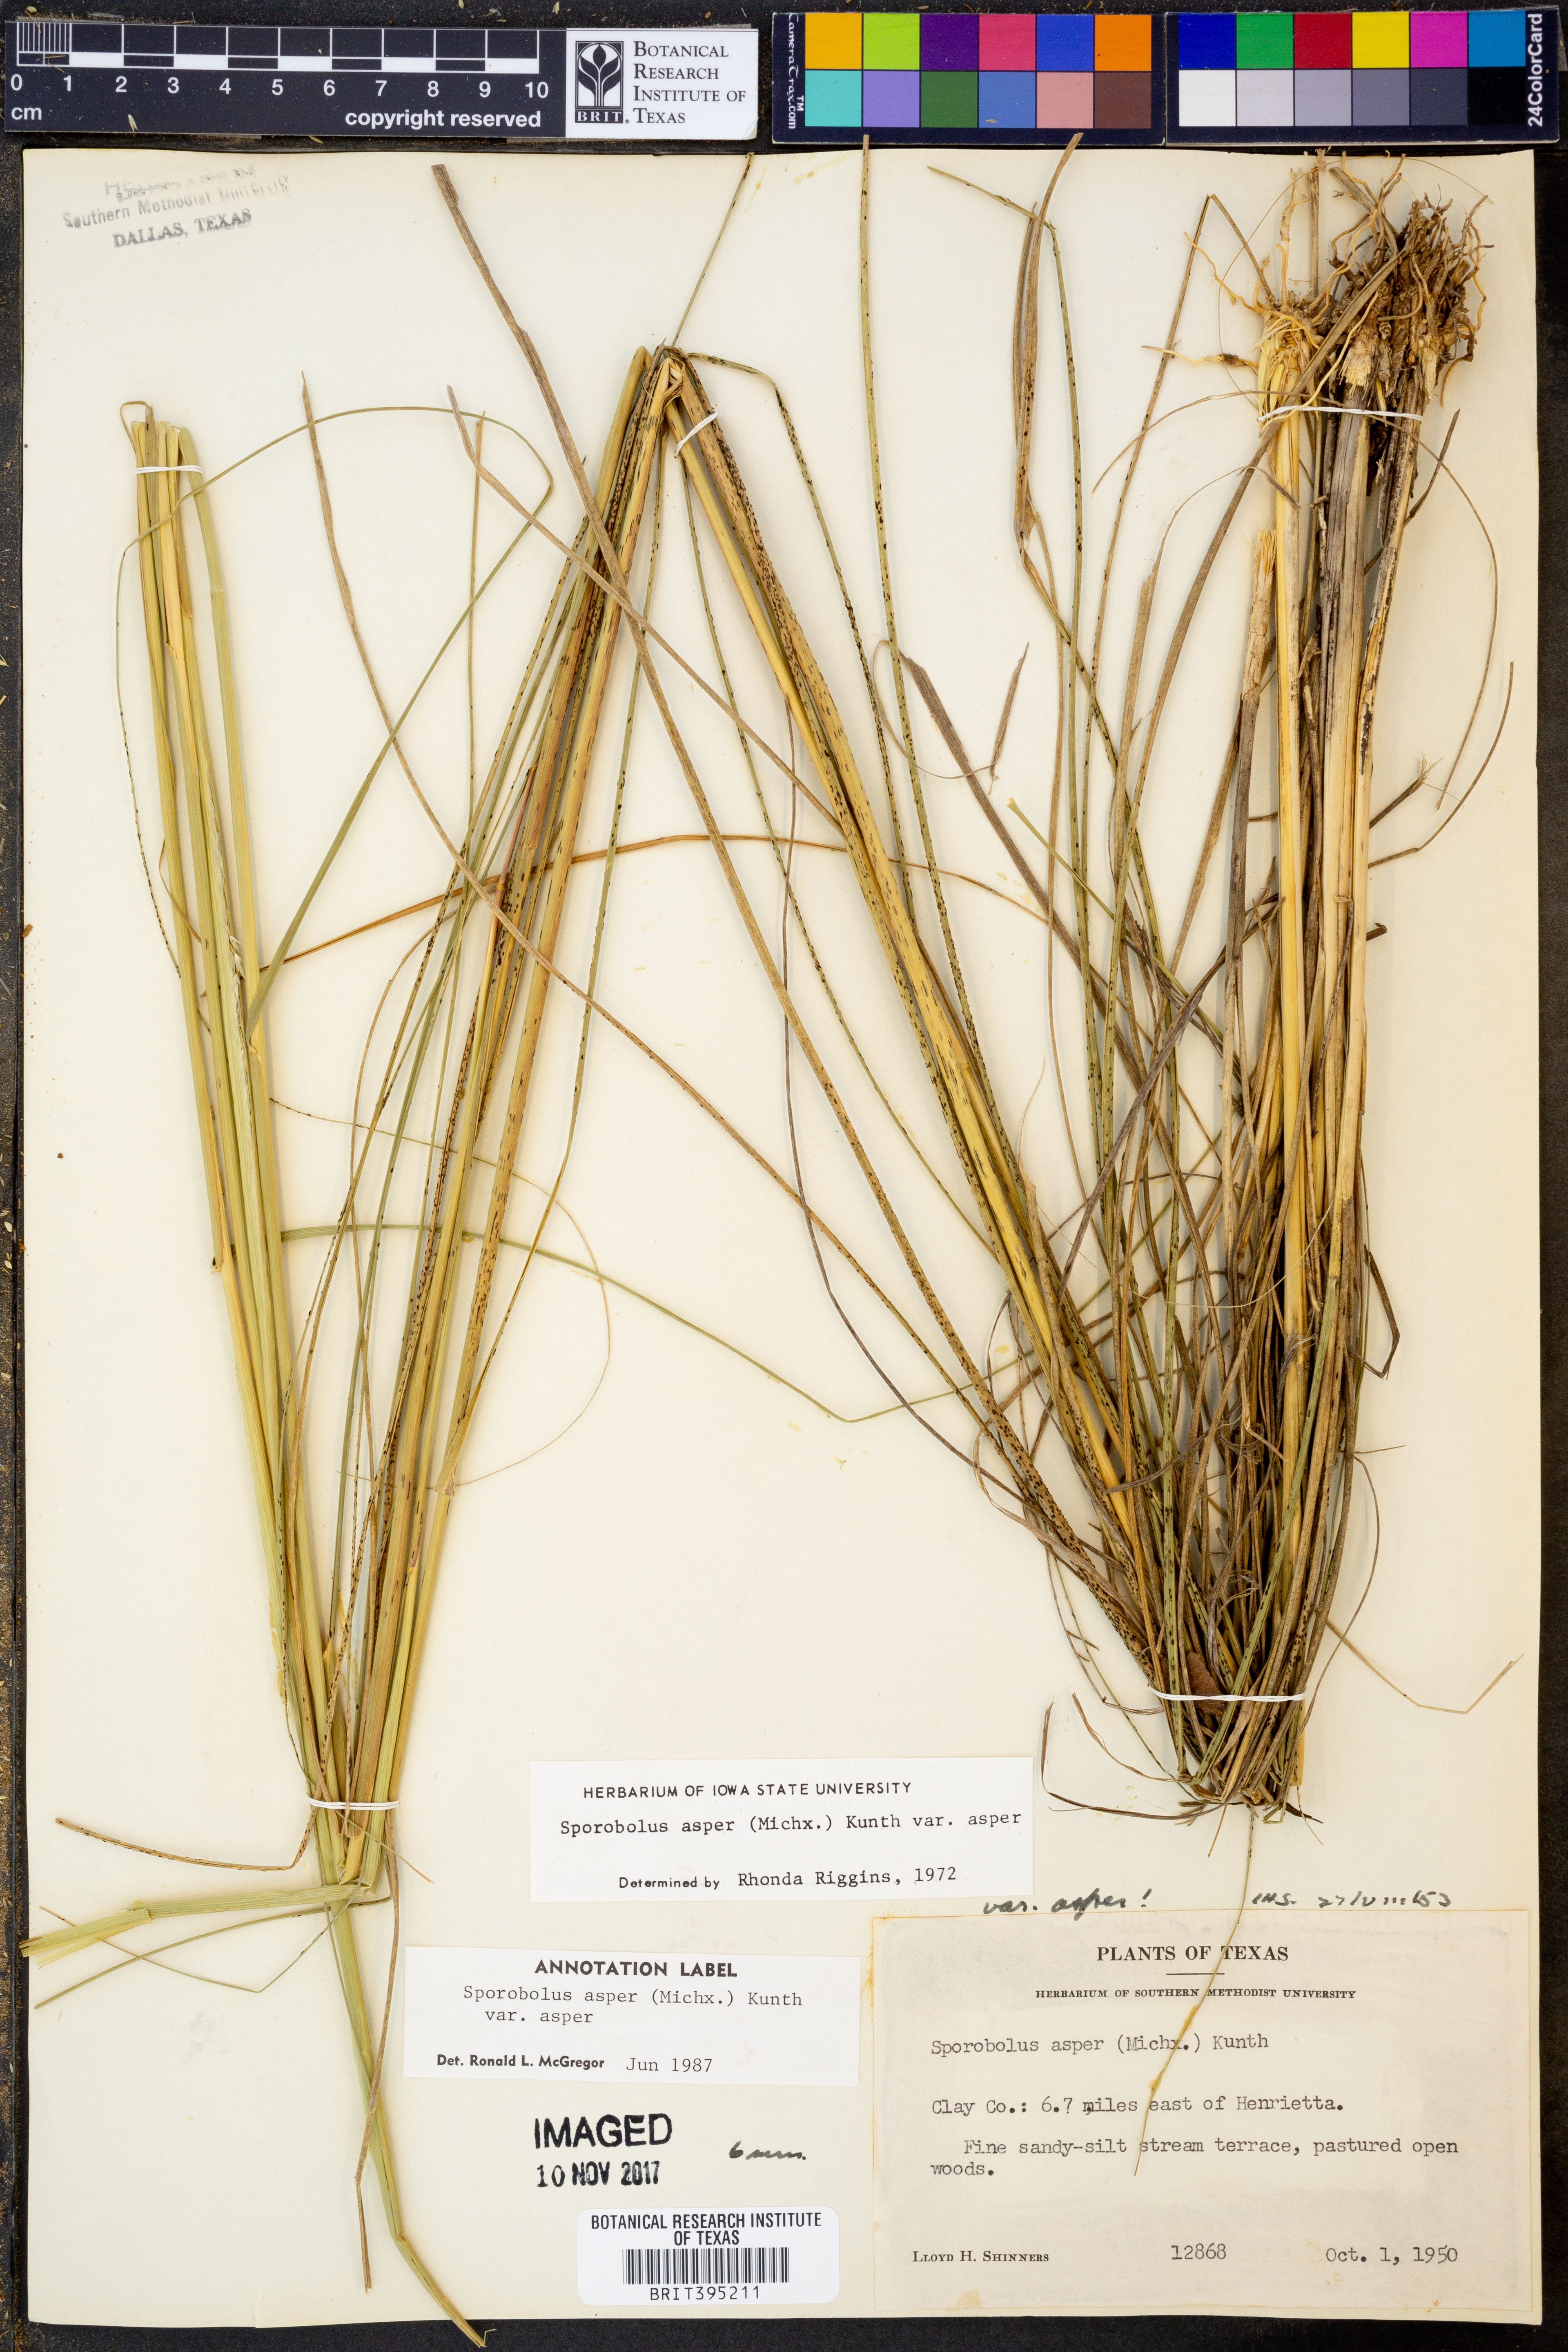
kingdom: Plantae
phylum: Tracheophyta
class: Liliopsida
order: Poales
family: Poaceae
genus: Sporobolus
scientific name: Sporobolus compositus
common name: Rough dropseed
